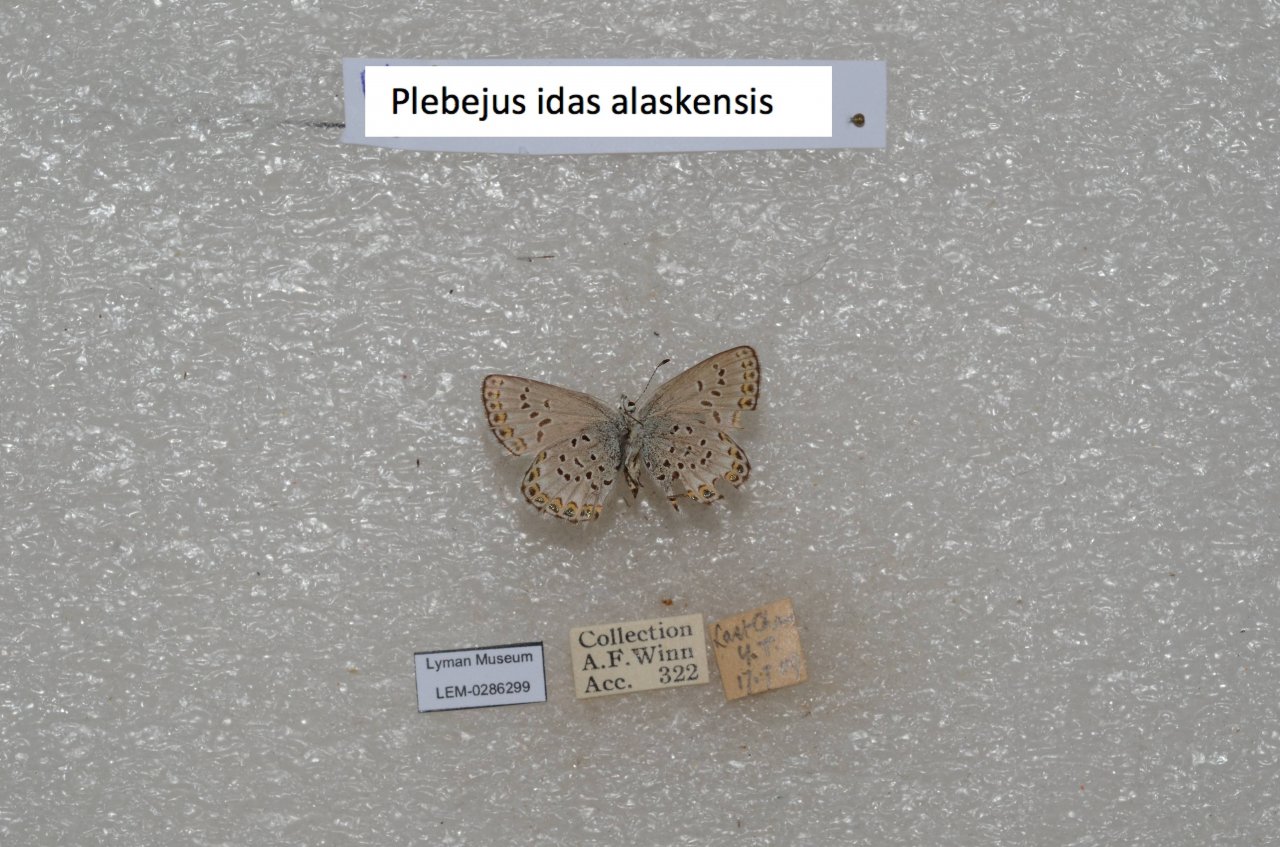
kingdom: Animalia
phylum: Arthropoda
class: Insecta
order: Lepidoptera
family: Lycaenidae
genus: Lycaeides
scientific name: Lycaeides idas
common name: Northern Blue
